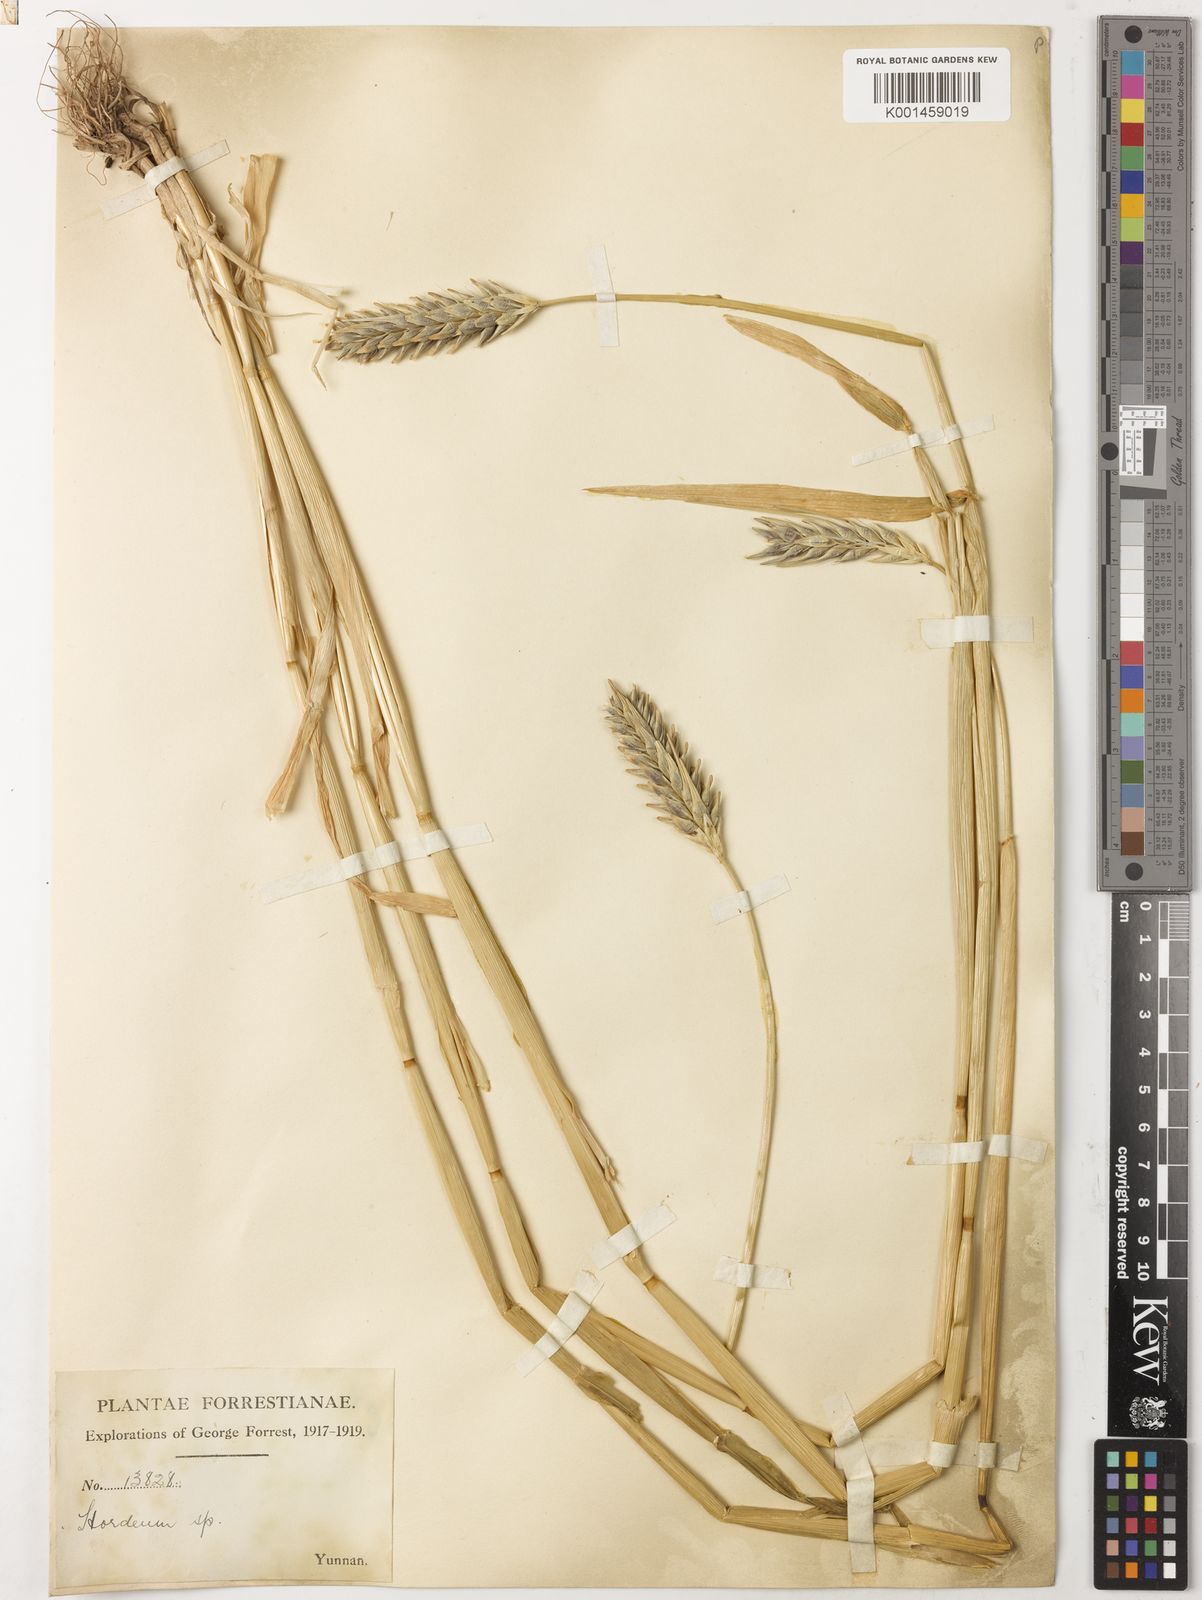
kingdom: Plantae
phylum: Tracheophyta
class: Liliopsida
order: Poales
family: Poaceae
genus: Hordeum
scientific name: Hordeum vulgare
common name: Common barley
